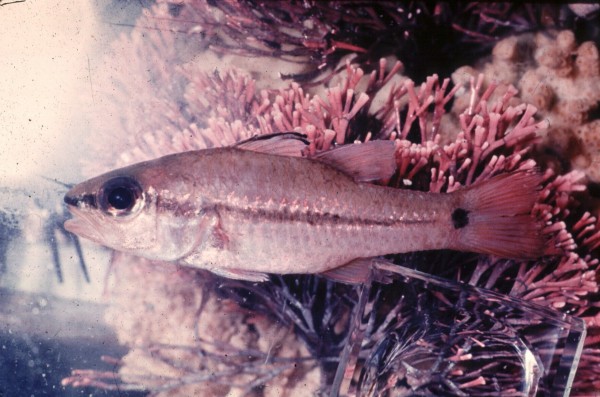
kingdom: Animalia
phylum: Chordata
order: Perciformes
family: Apogonidae
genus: Pristiapogon
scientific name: Pristiapogon fraenatus
